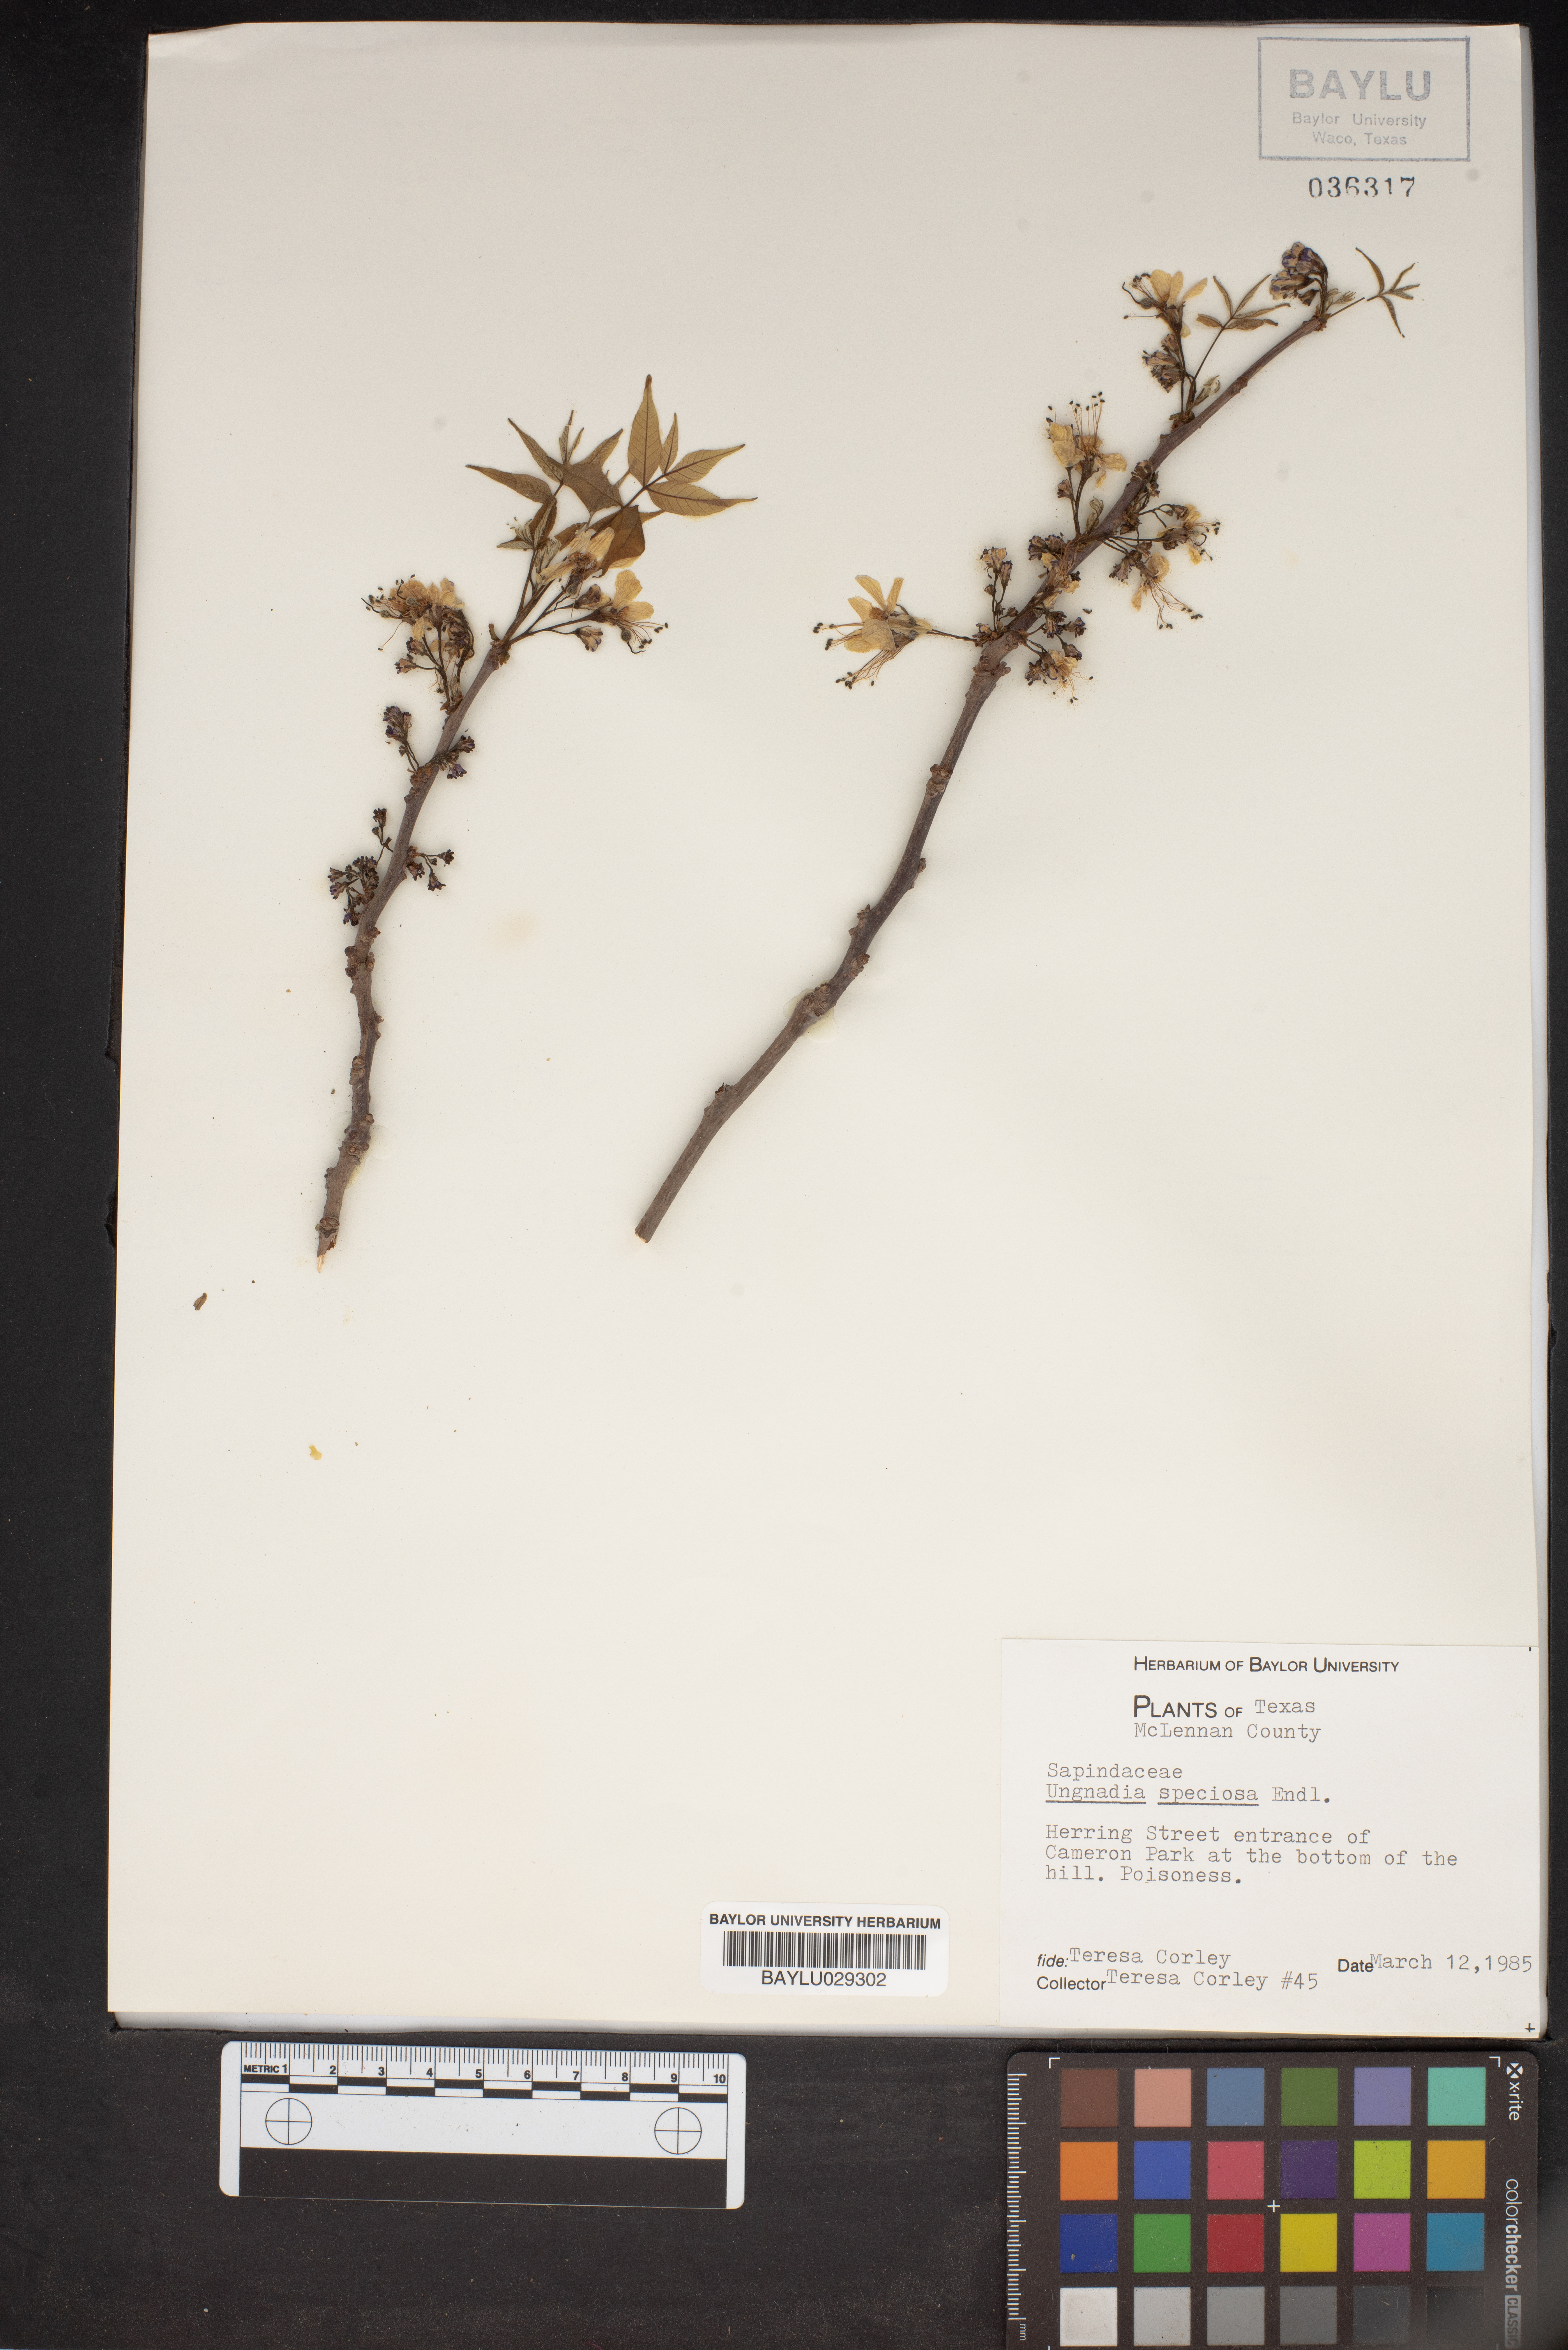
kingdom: Plantae
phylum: Tracheophyta
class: Magnoliopsida
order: Sapindales
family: Sapindaceae
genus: Ungnadia
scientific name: Ungnadia speciosa
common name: Texas-buckeye
